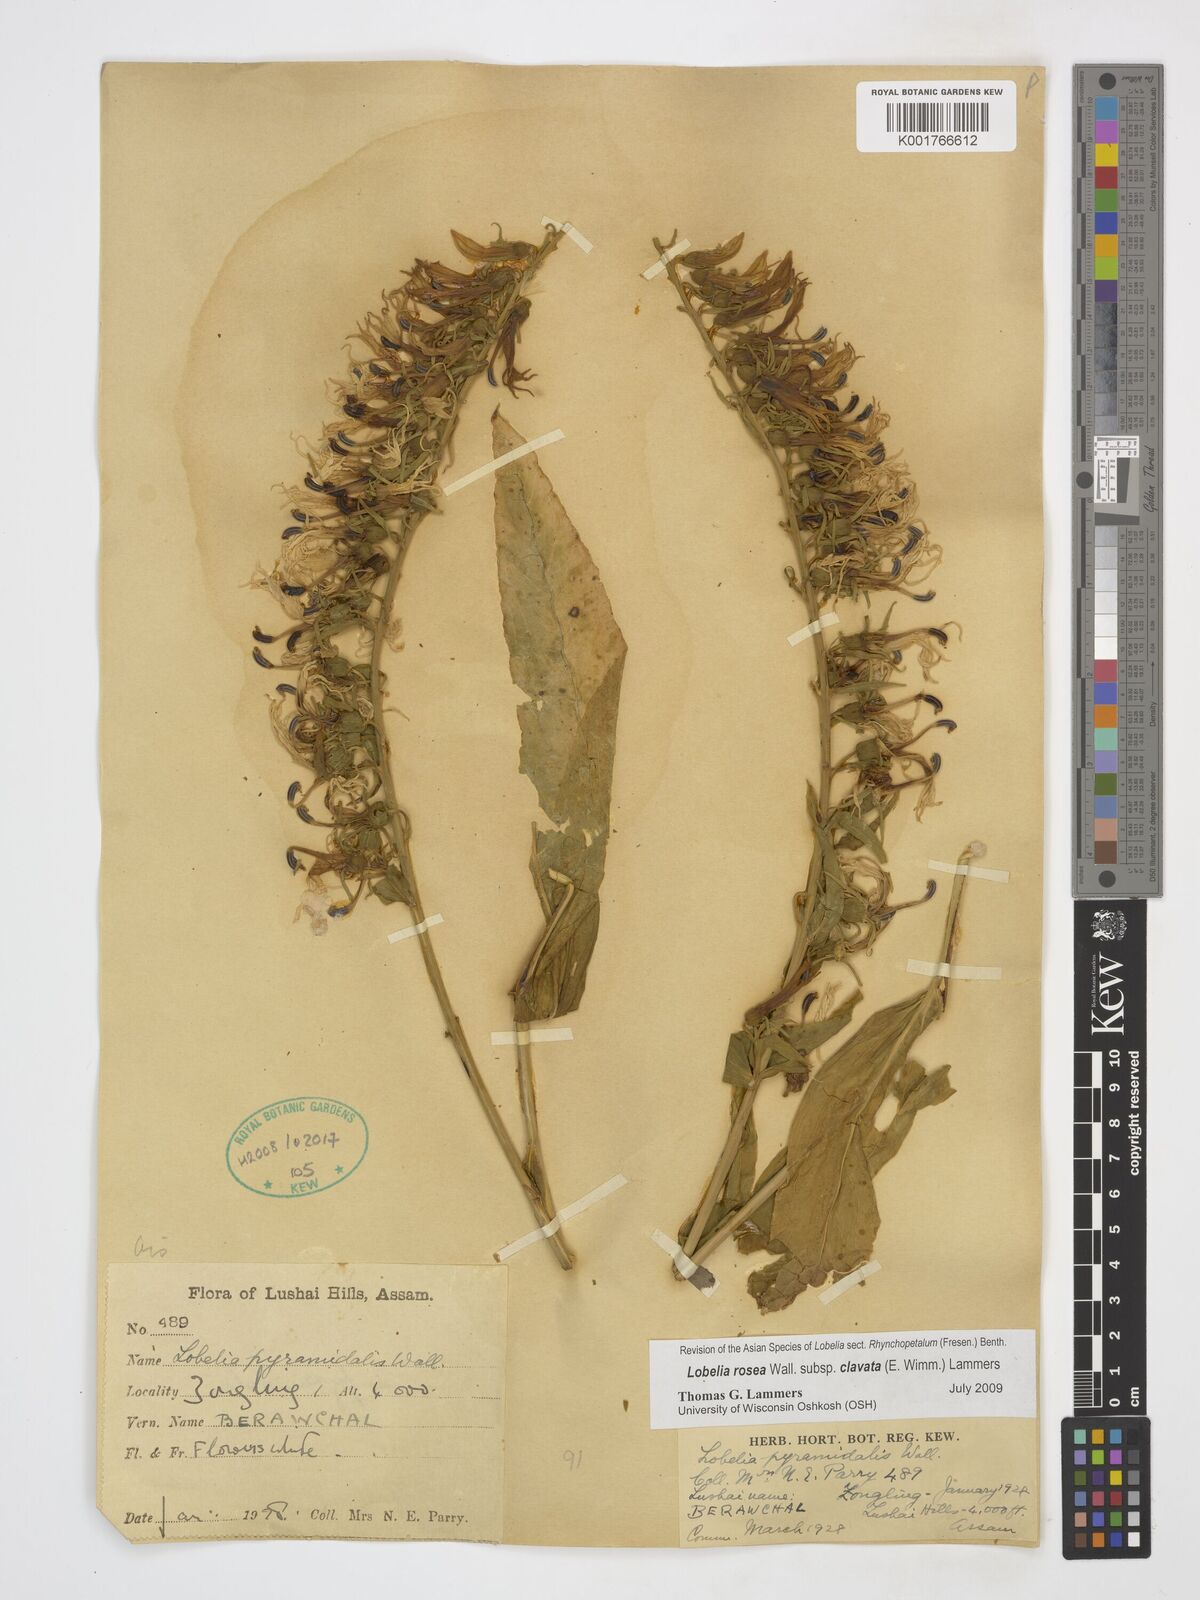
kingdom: Plantae
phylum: Tracheophyta
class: Magnoliopsida
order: Asterales
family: Campanulaceae
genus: Lobelia
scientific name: Lobelia rosea
